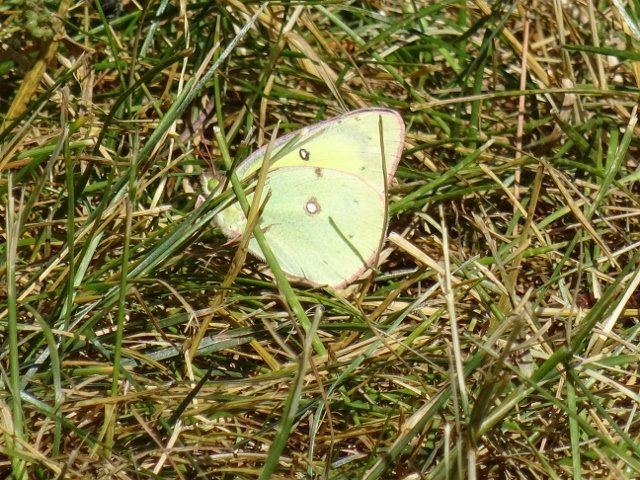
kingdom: Animalia
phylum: Arthropoda
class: Insecta
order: Lepidoptera
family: Pieridae
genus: Colias
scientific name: Colias philodice
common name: Clouded Sulphur
